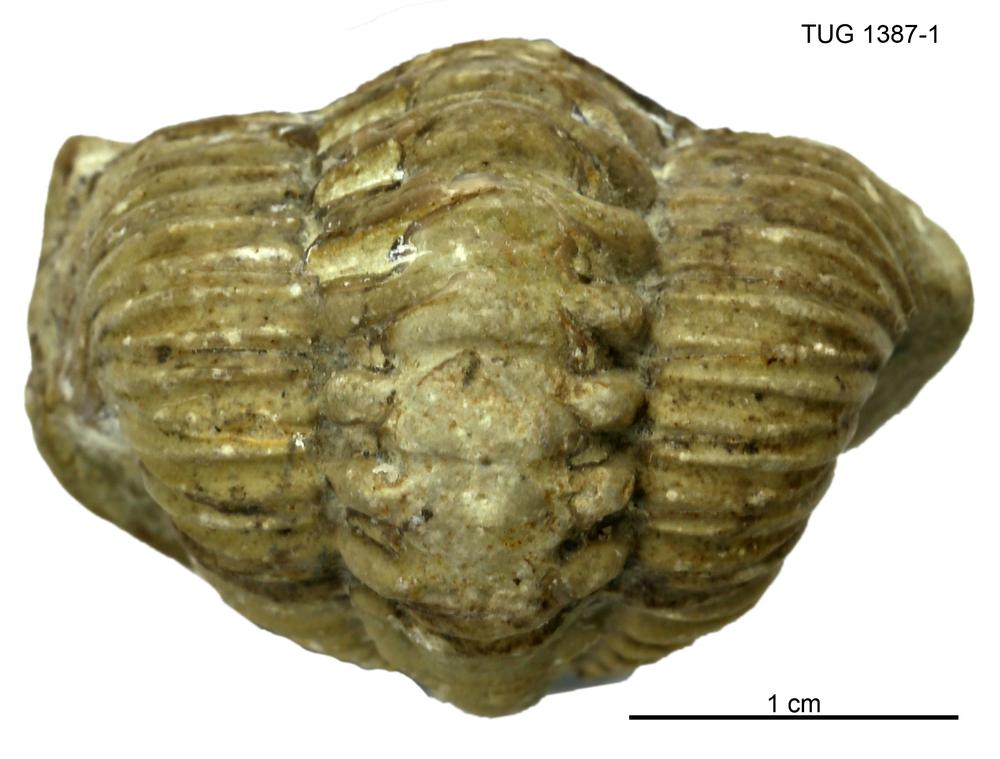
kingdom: Animalia
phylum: Arthropoda
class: Trilobita
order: Phacopida
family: Pterygometopidae
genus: Chasmops
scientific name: Chasmops Phacops marginata
